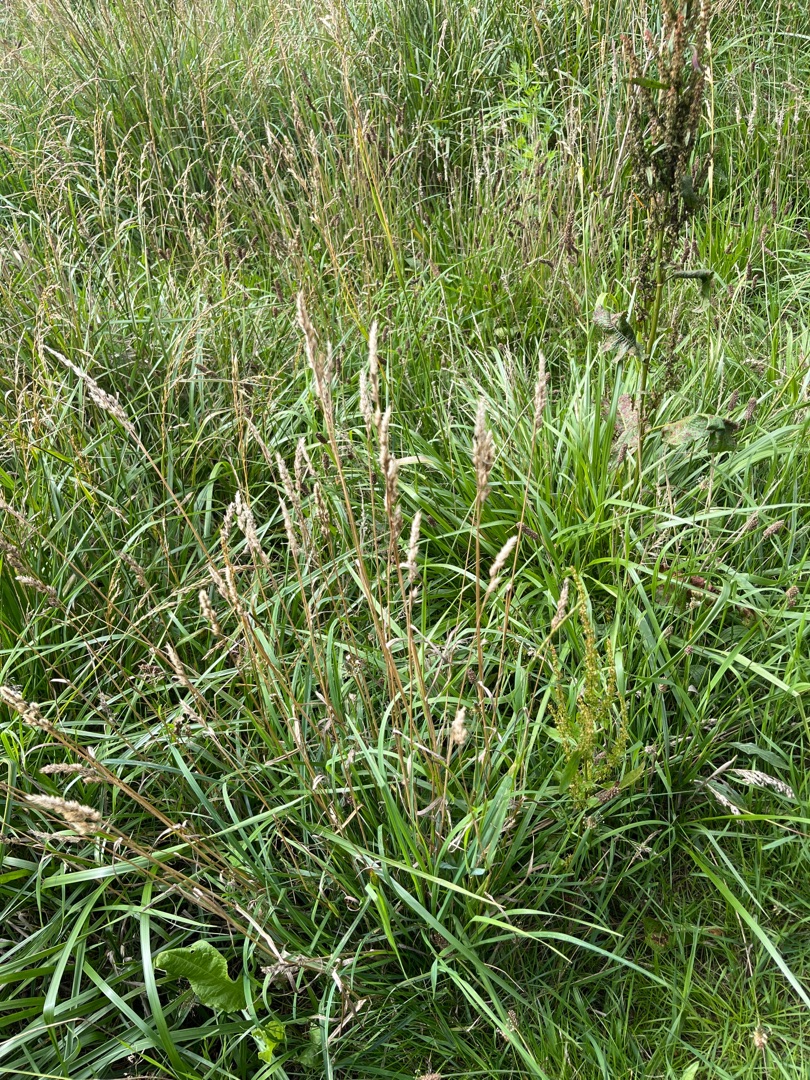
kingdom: Plantae
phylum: Tracheophyta
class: Liliopsida
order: Poales
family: Poaceae
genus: Dactylis
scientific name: Dactylis glomerata
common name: Almindelig hundegræs
